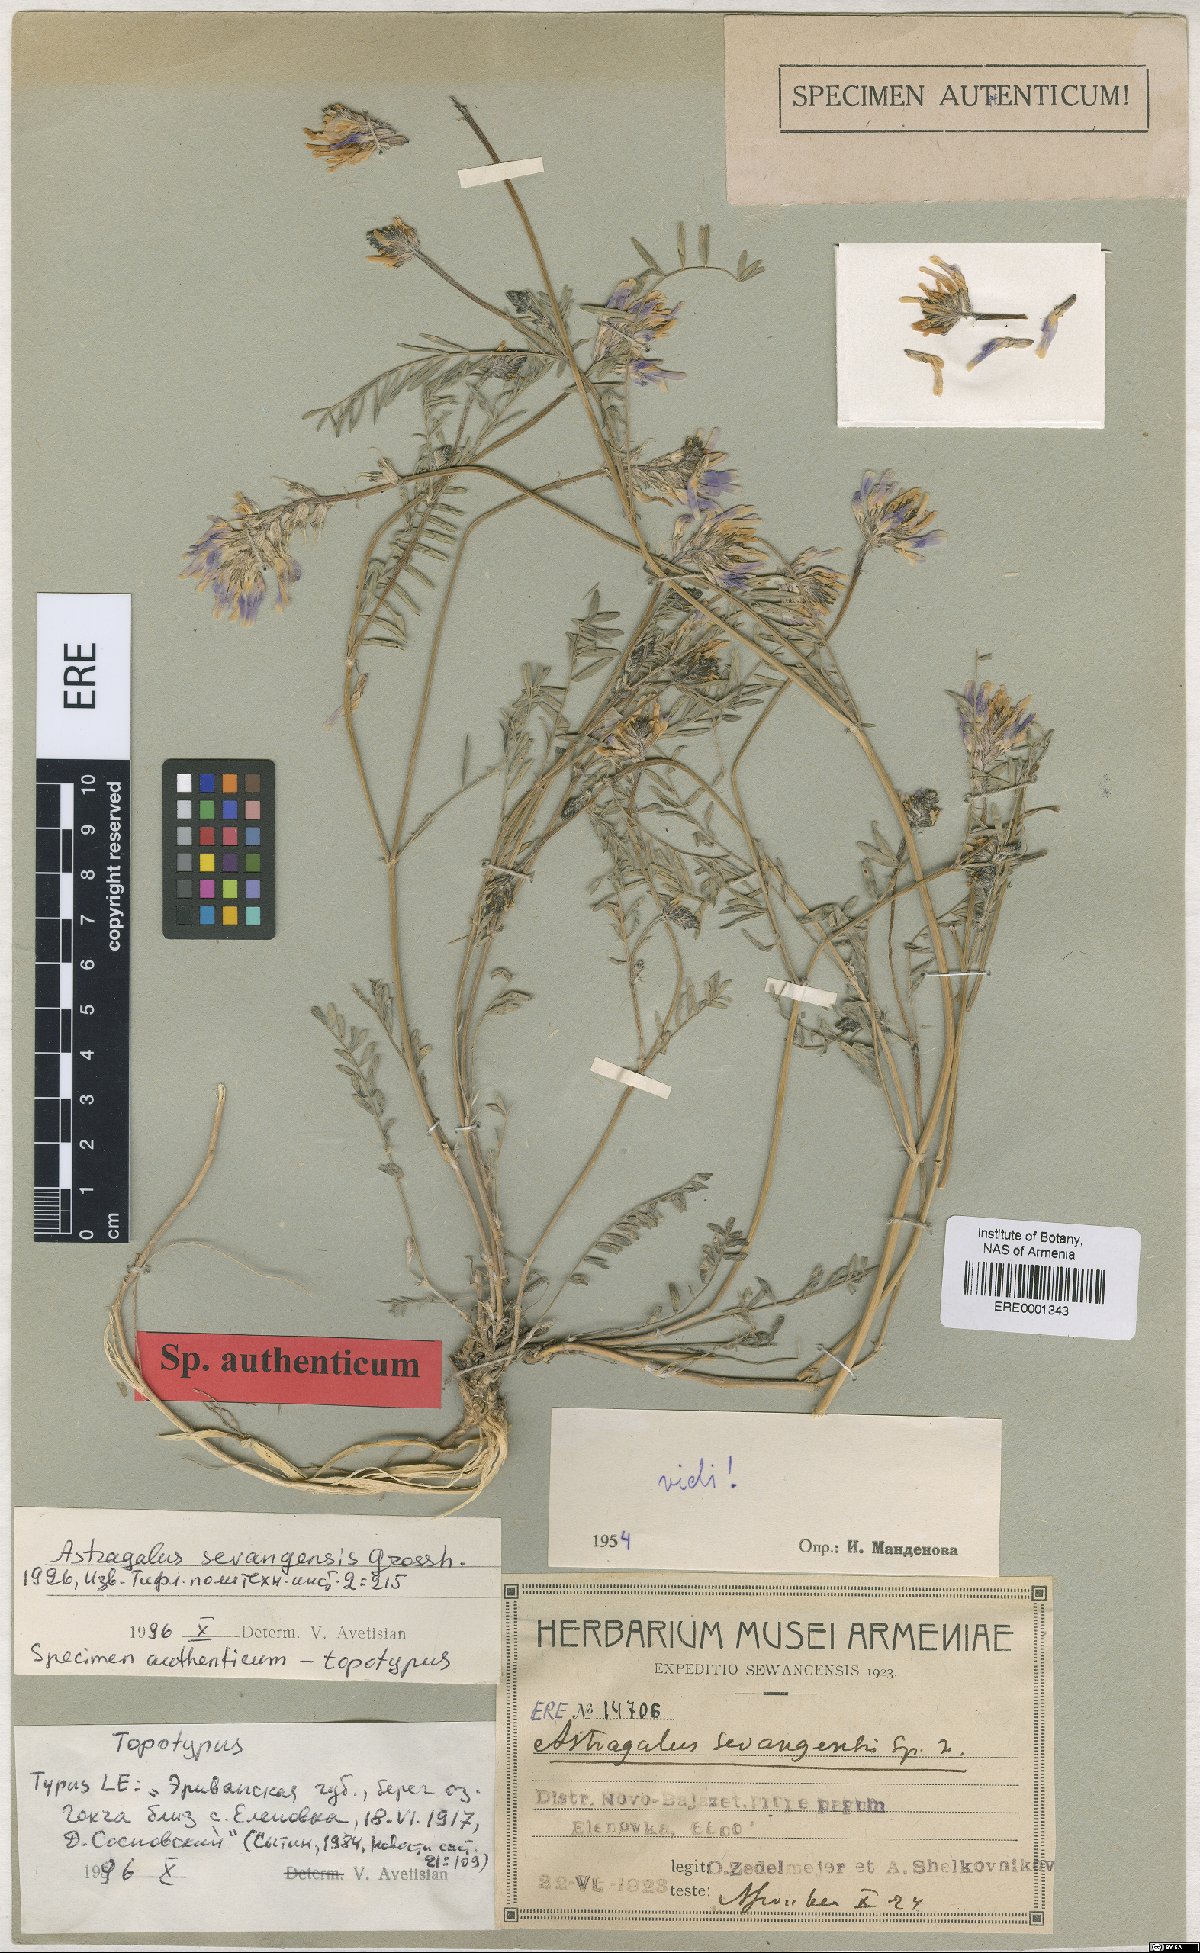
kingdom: Plantae
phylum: Tracheophyta
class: Magnoliopsida
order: Fabales
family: Fabaceae
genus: Astragalus
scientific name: Astragalus sevangensis
